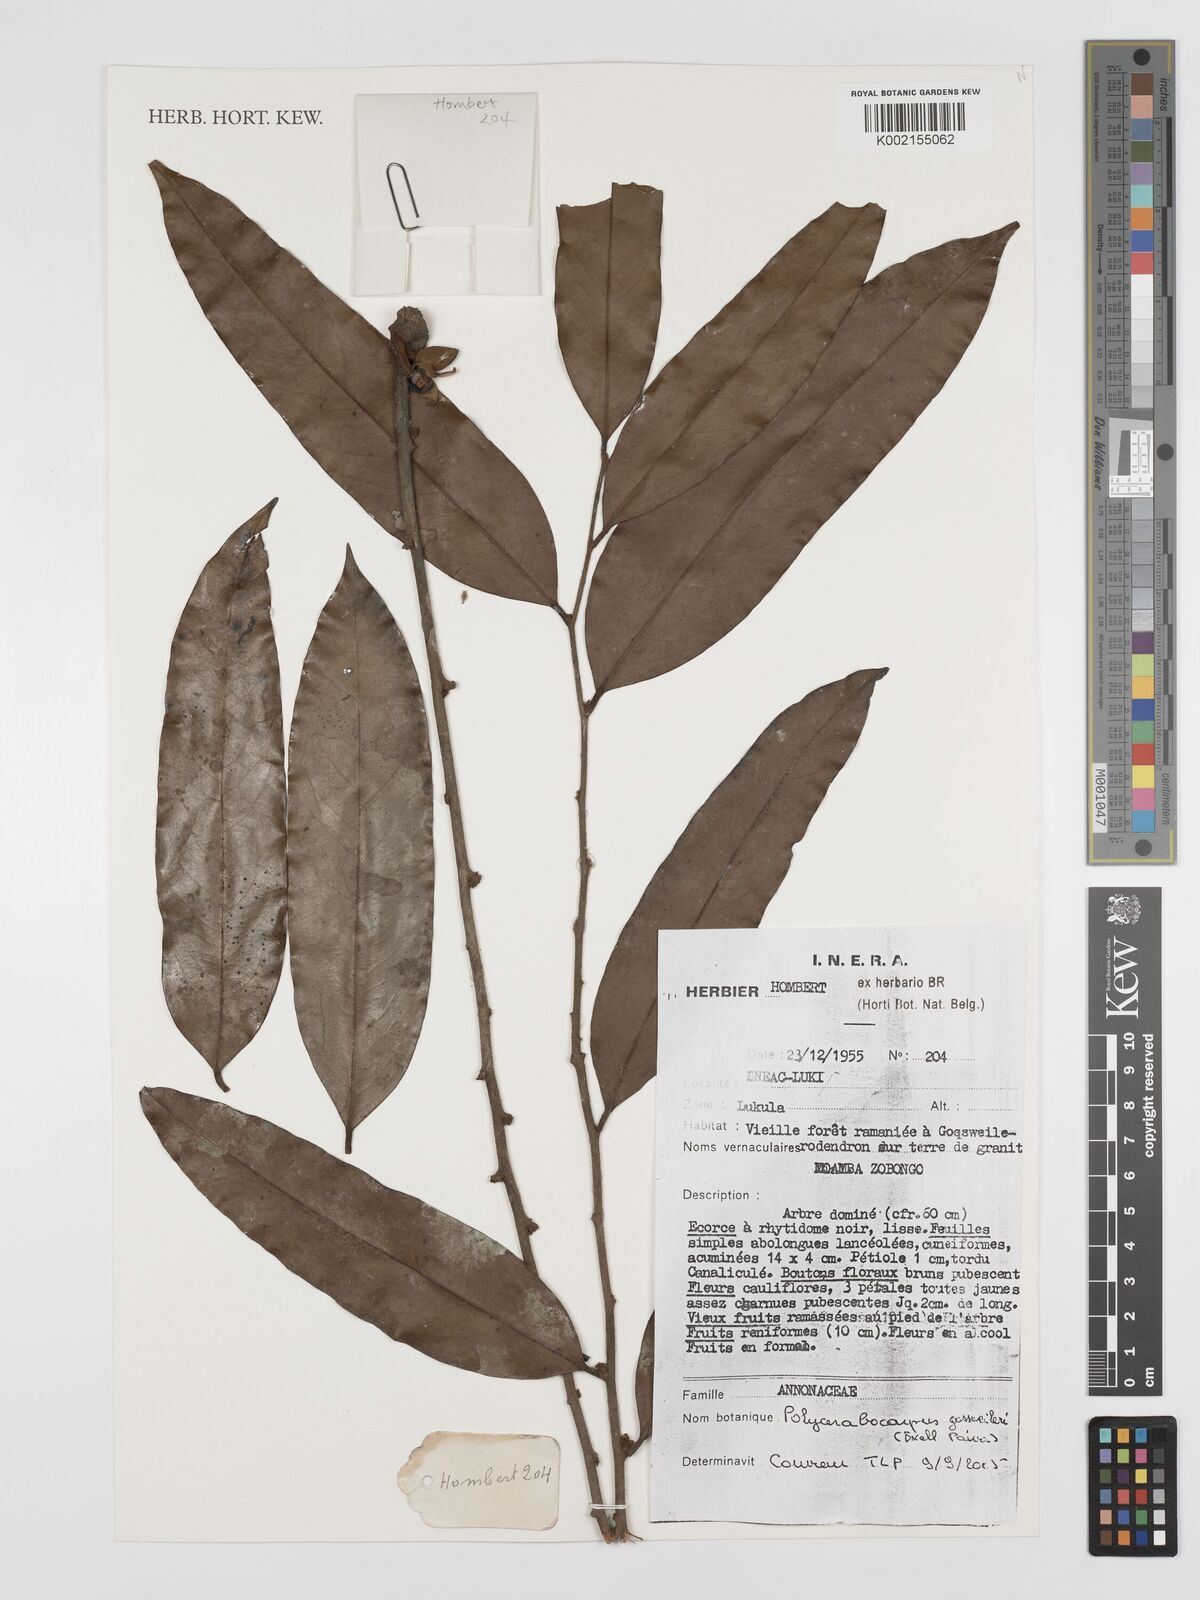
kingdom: Plantae
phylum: Tracheophyta
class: Magnoliopsida
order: Magnoliales
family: Annonaceae
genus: Polyceratocarpus
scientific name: Polyceratocarpus gossweileri
